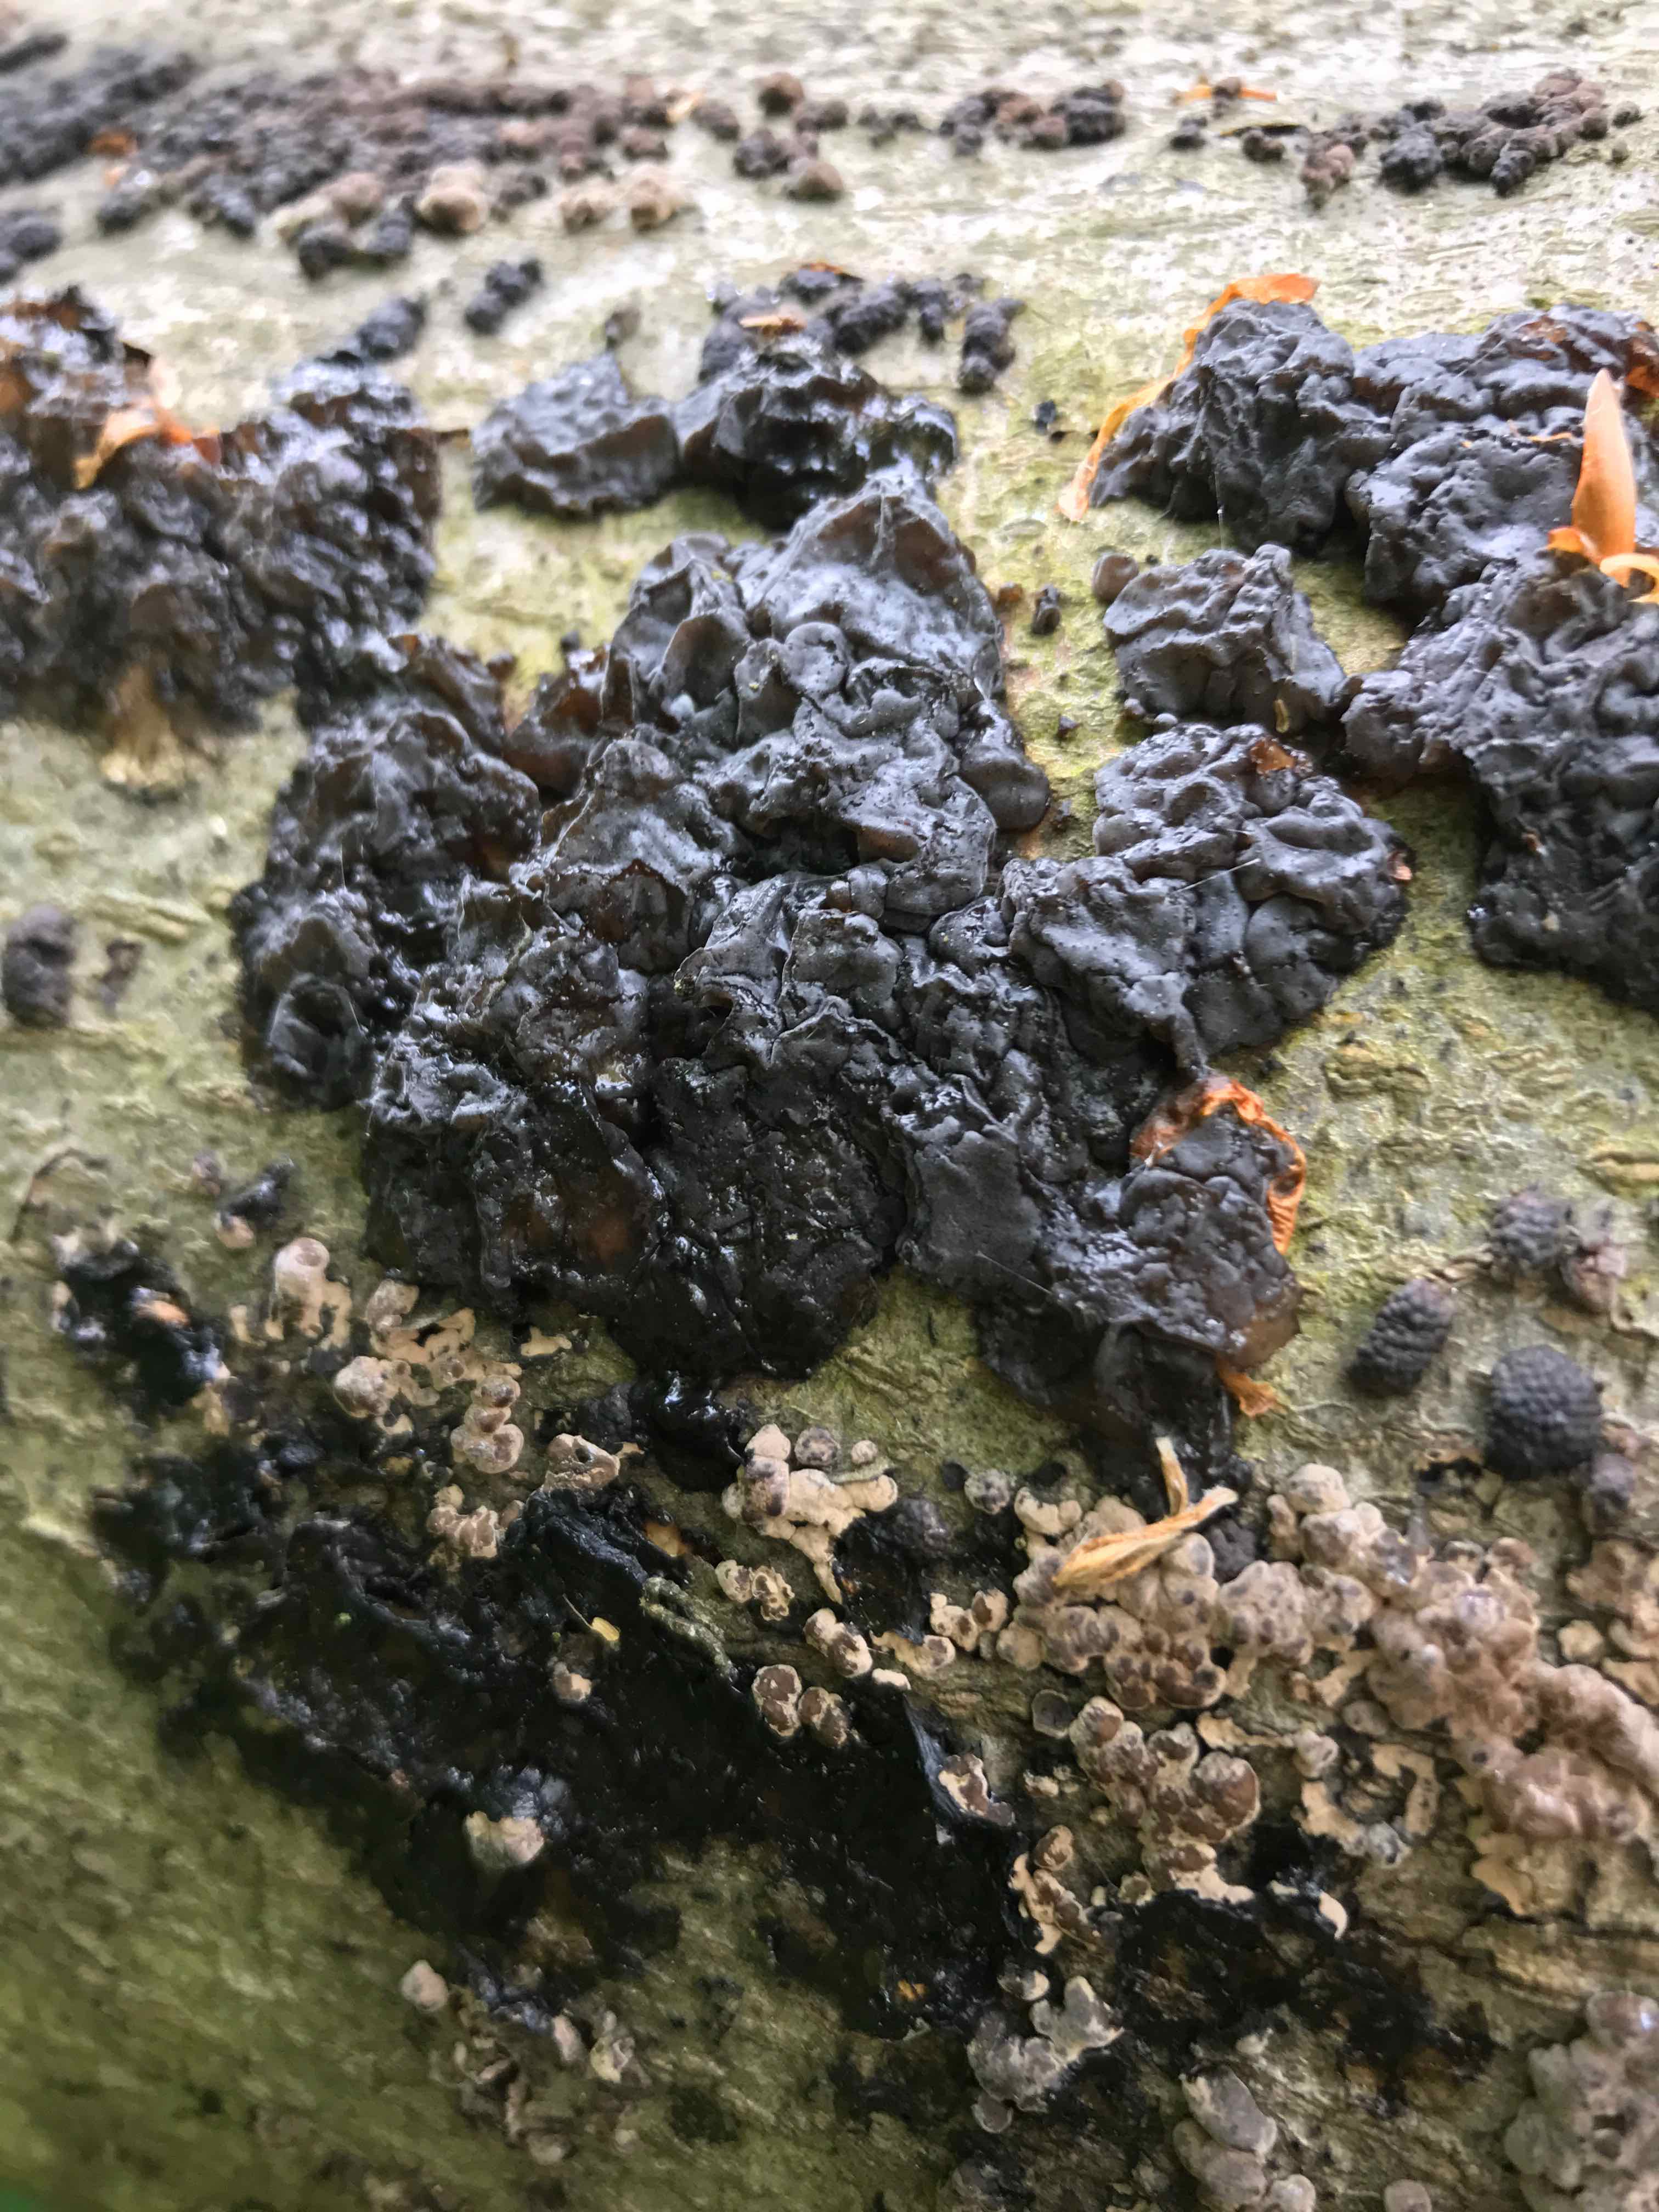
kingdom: Fungi
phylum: Basidiomycota
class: Agaricomycetes
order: Auriculariales
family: Auriculariaceae
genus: Exidia
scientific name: Exidia nigricans
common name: almindelig bævretop
